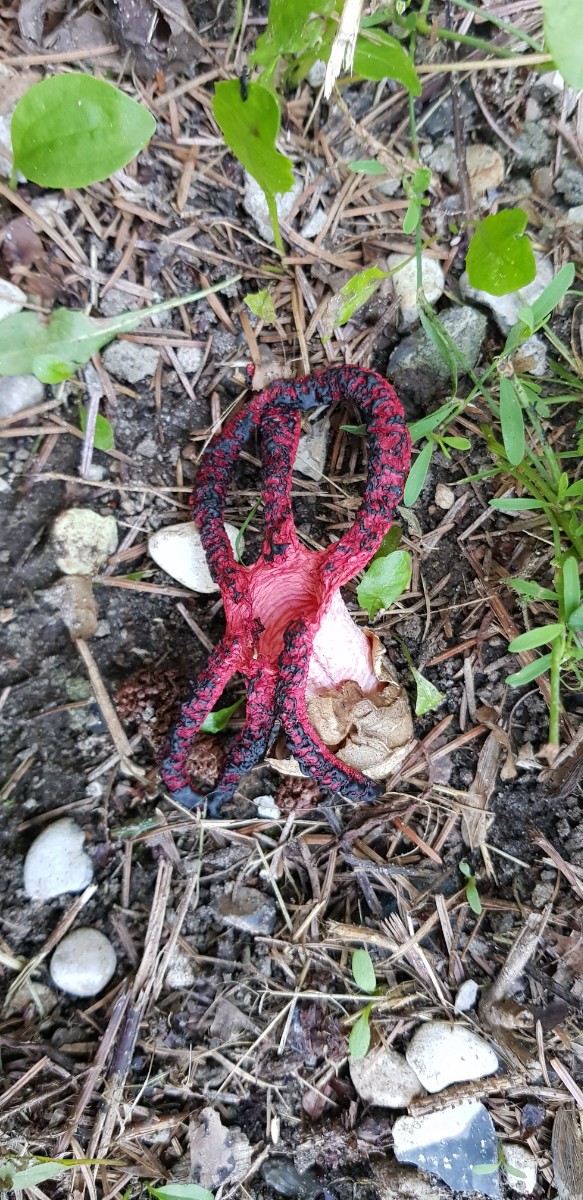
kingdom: Fungi
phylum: Basidiomycota
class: Agaricomycetes
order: Phallales
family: Phallaceae
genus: Clathrus
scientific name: Clathrus archeri
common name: blækspruttesvamp
